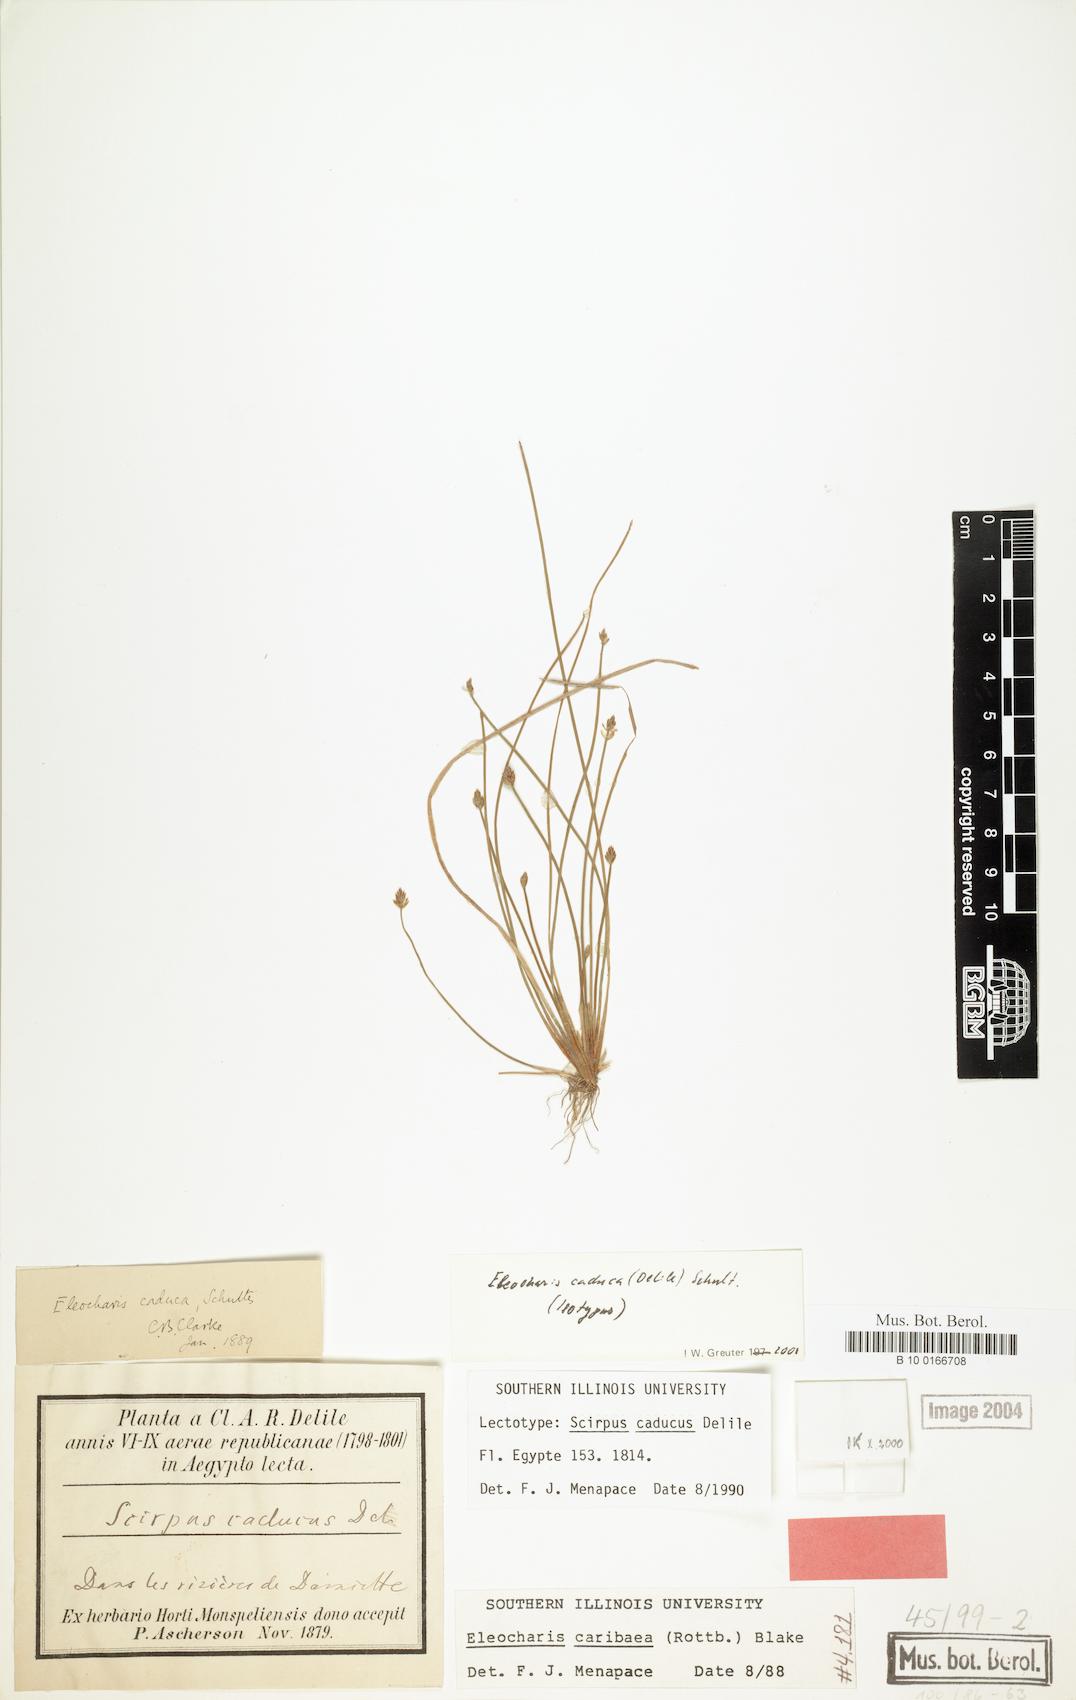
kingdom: Plantae
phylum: Tracheophyta
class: Liliopsida
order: Poales
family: Cyperaceae
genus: Eleocharis
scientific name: Eleocharis caduca
